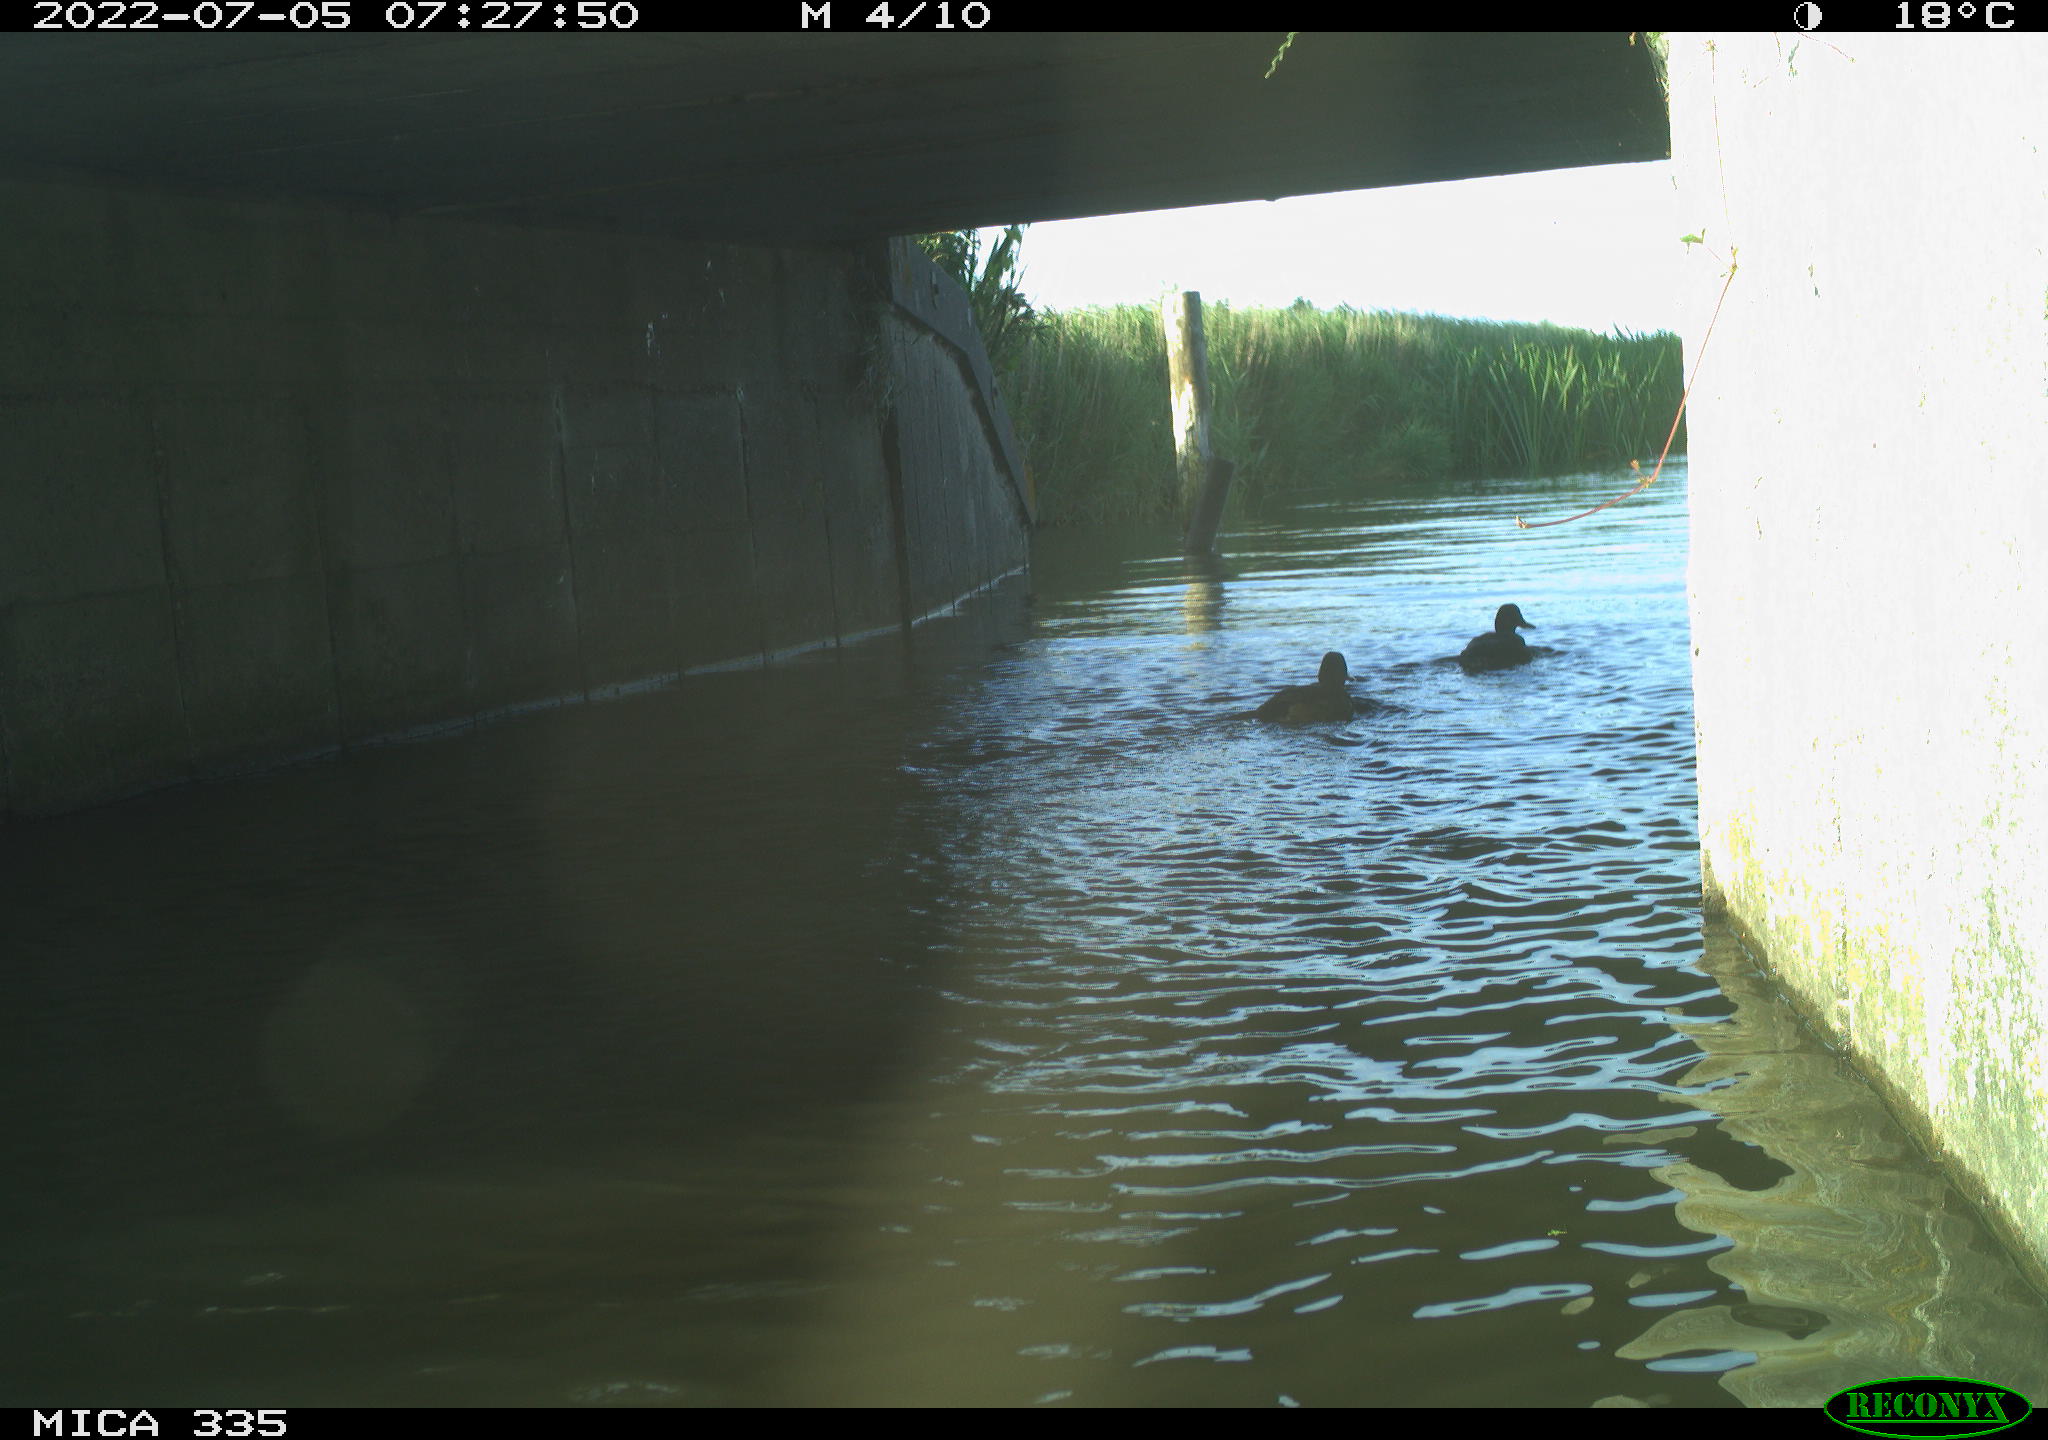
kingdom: Animalia
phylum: Chordata
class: Aves
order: Anseriformes
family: Anatidae
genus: Anas
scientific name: Anas platyrhynchos
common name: Mallard
